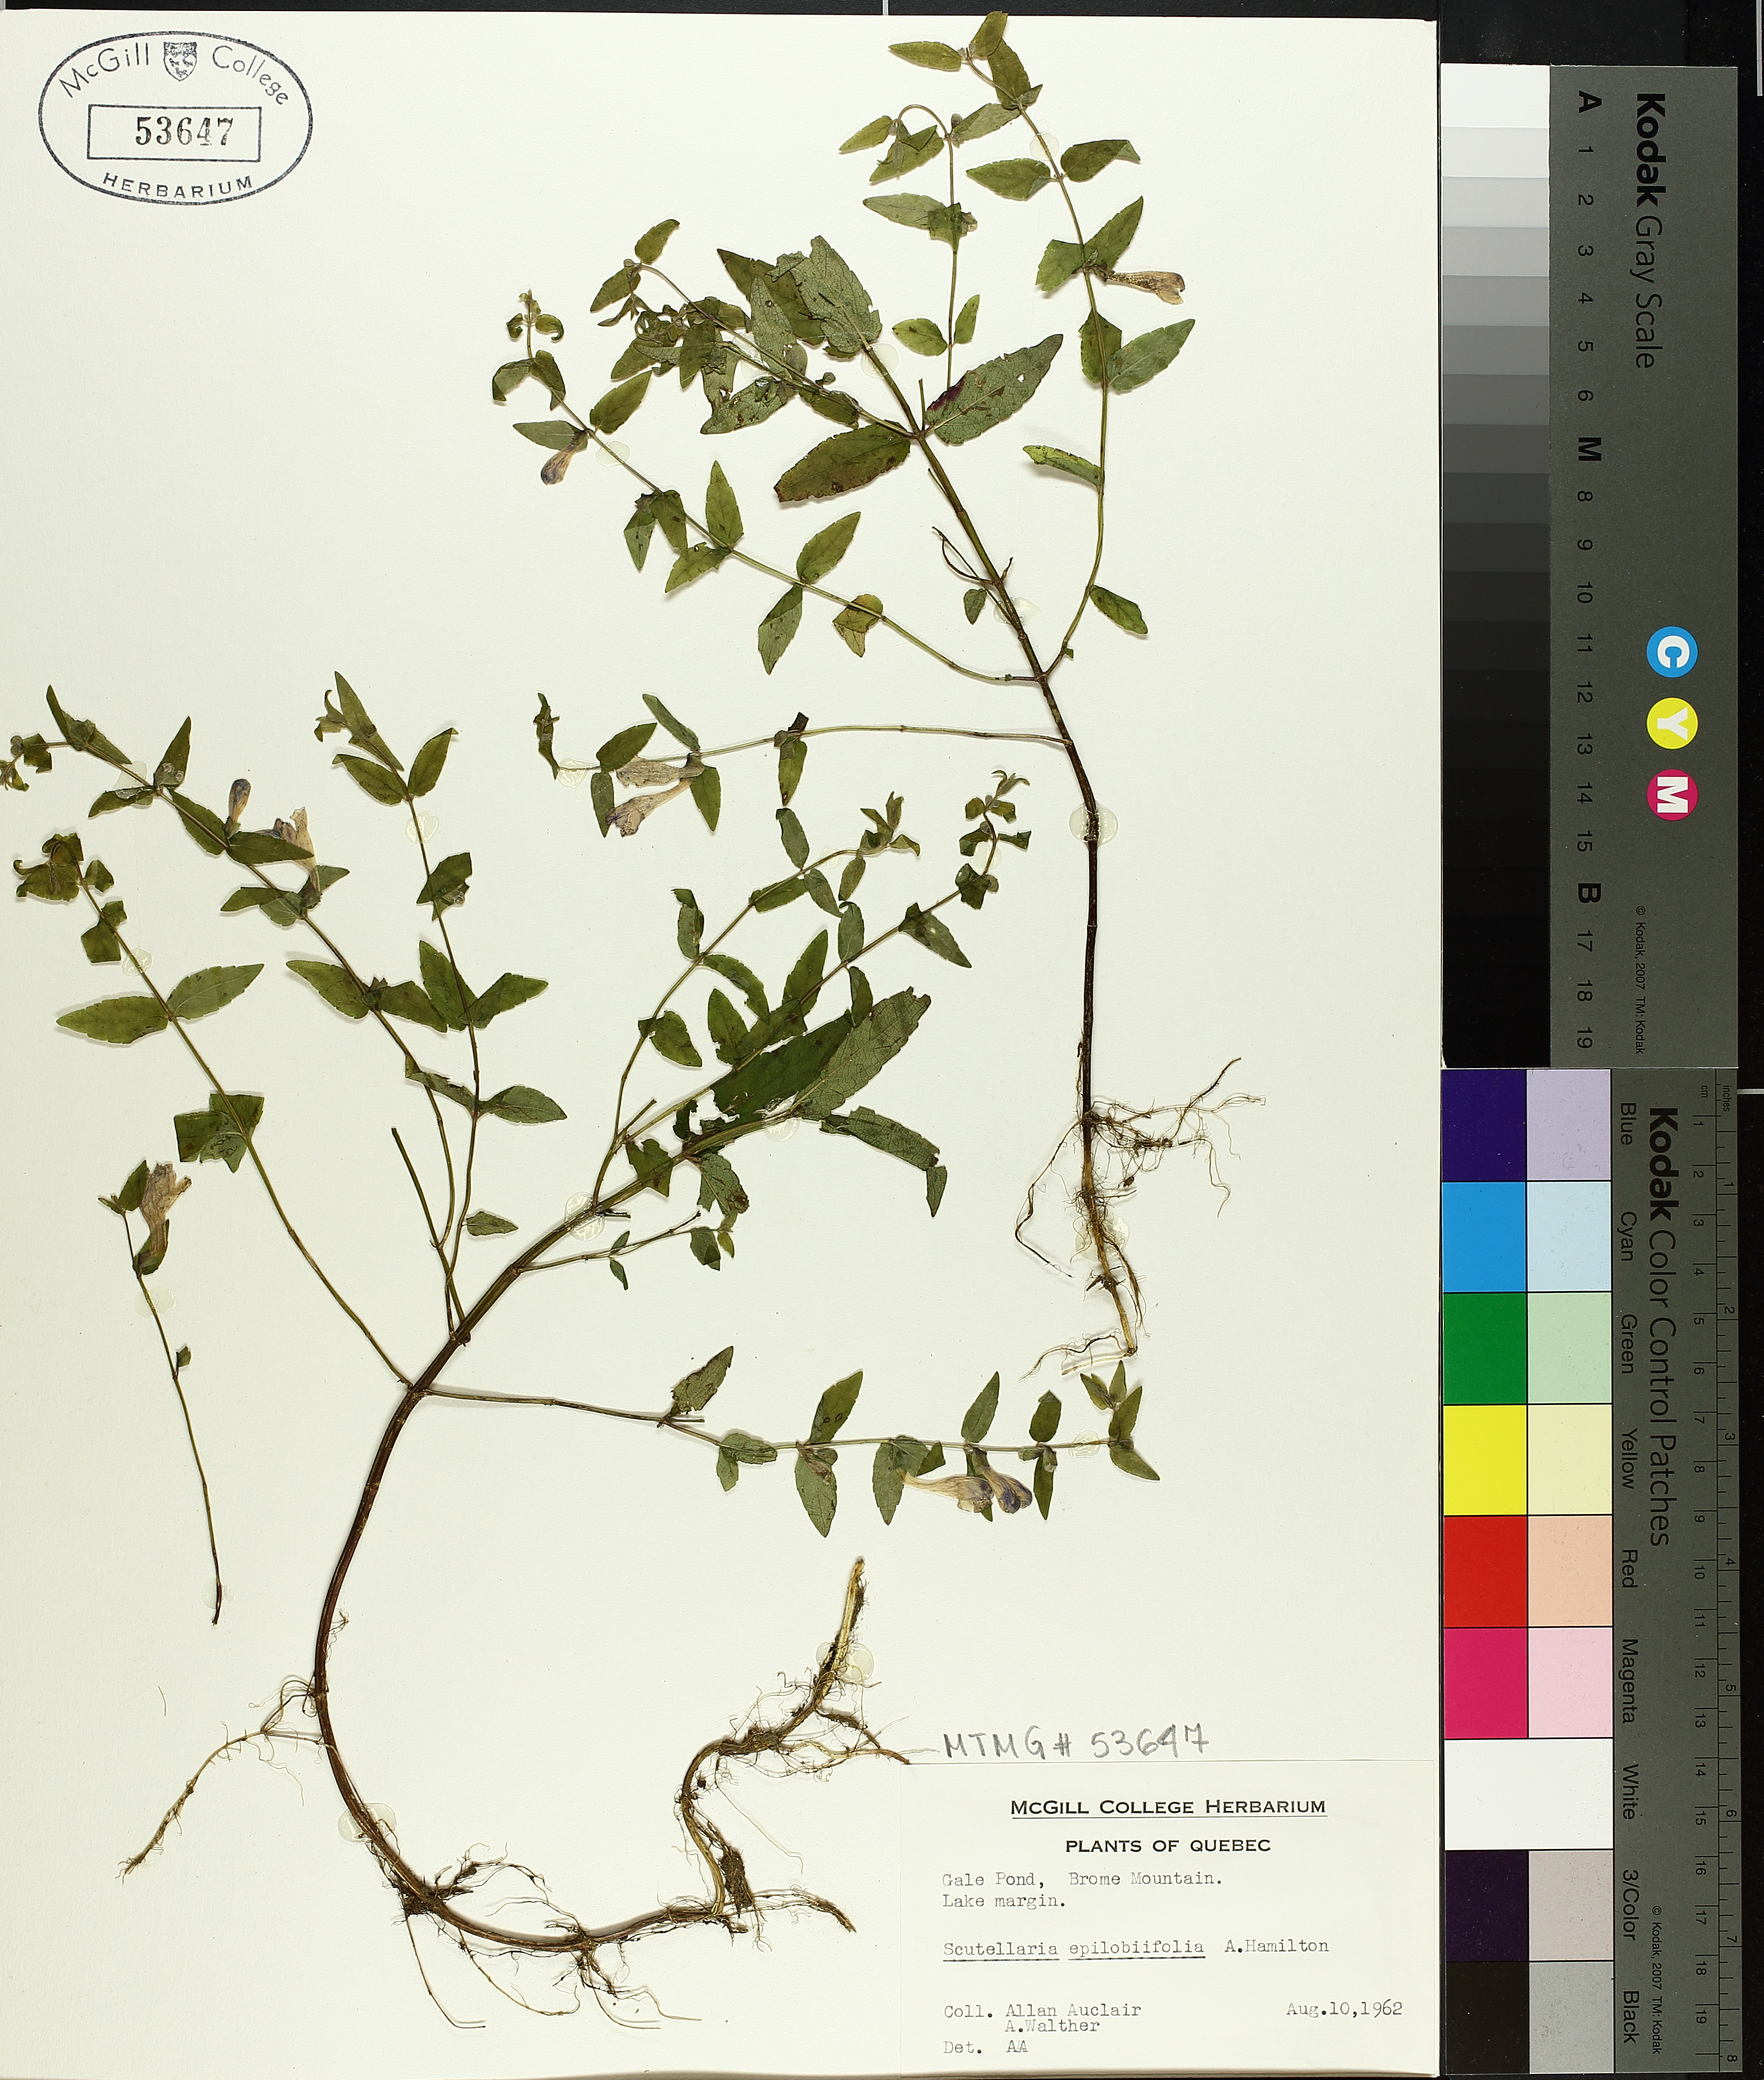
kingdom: Plantae
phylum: Tracheophyta
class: Magnoliopsida
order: Lamiales
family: Lamiaceae
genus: Scutellaria
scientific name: Scutellaria galericulata
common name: Skullcap
